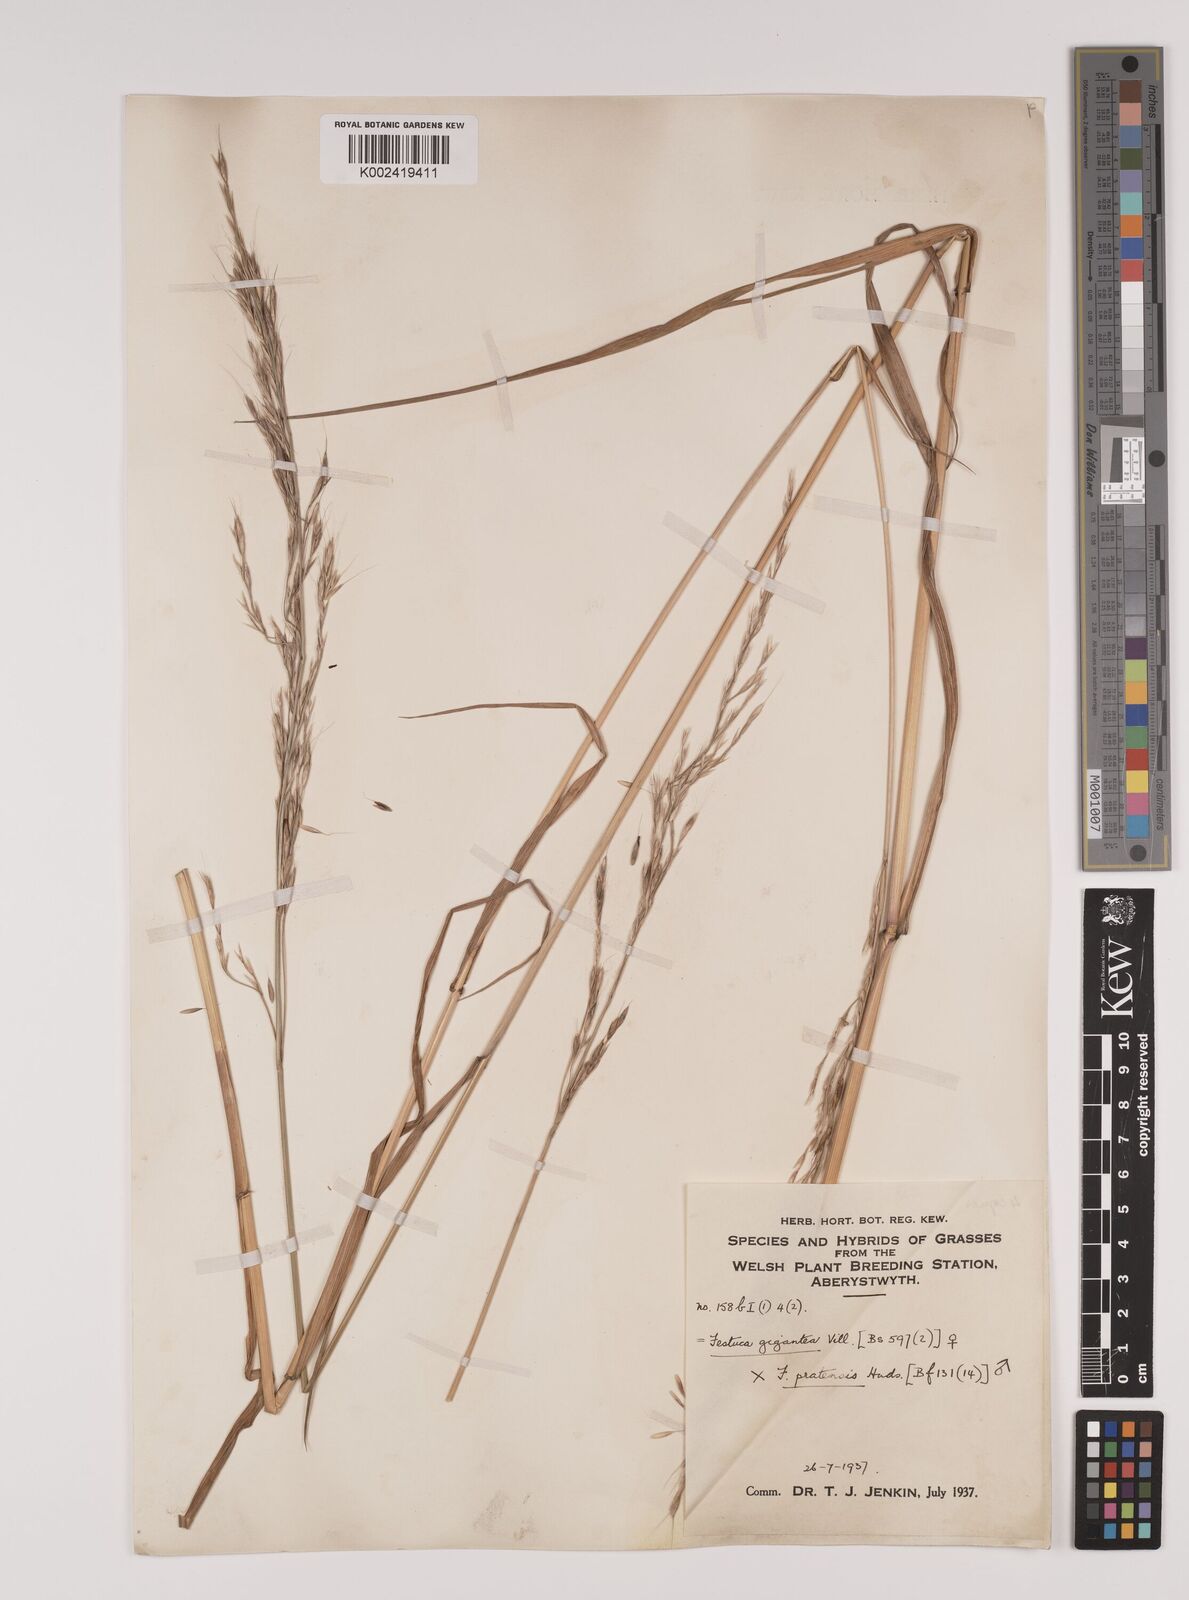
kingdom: Plantae
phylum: Tracheophyta
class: Liliopsida
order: Poales
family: Poaceae
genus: Lolium
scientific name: Lolium giganteum
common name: Giant fescue
